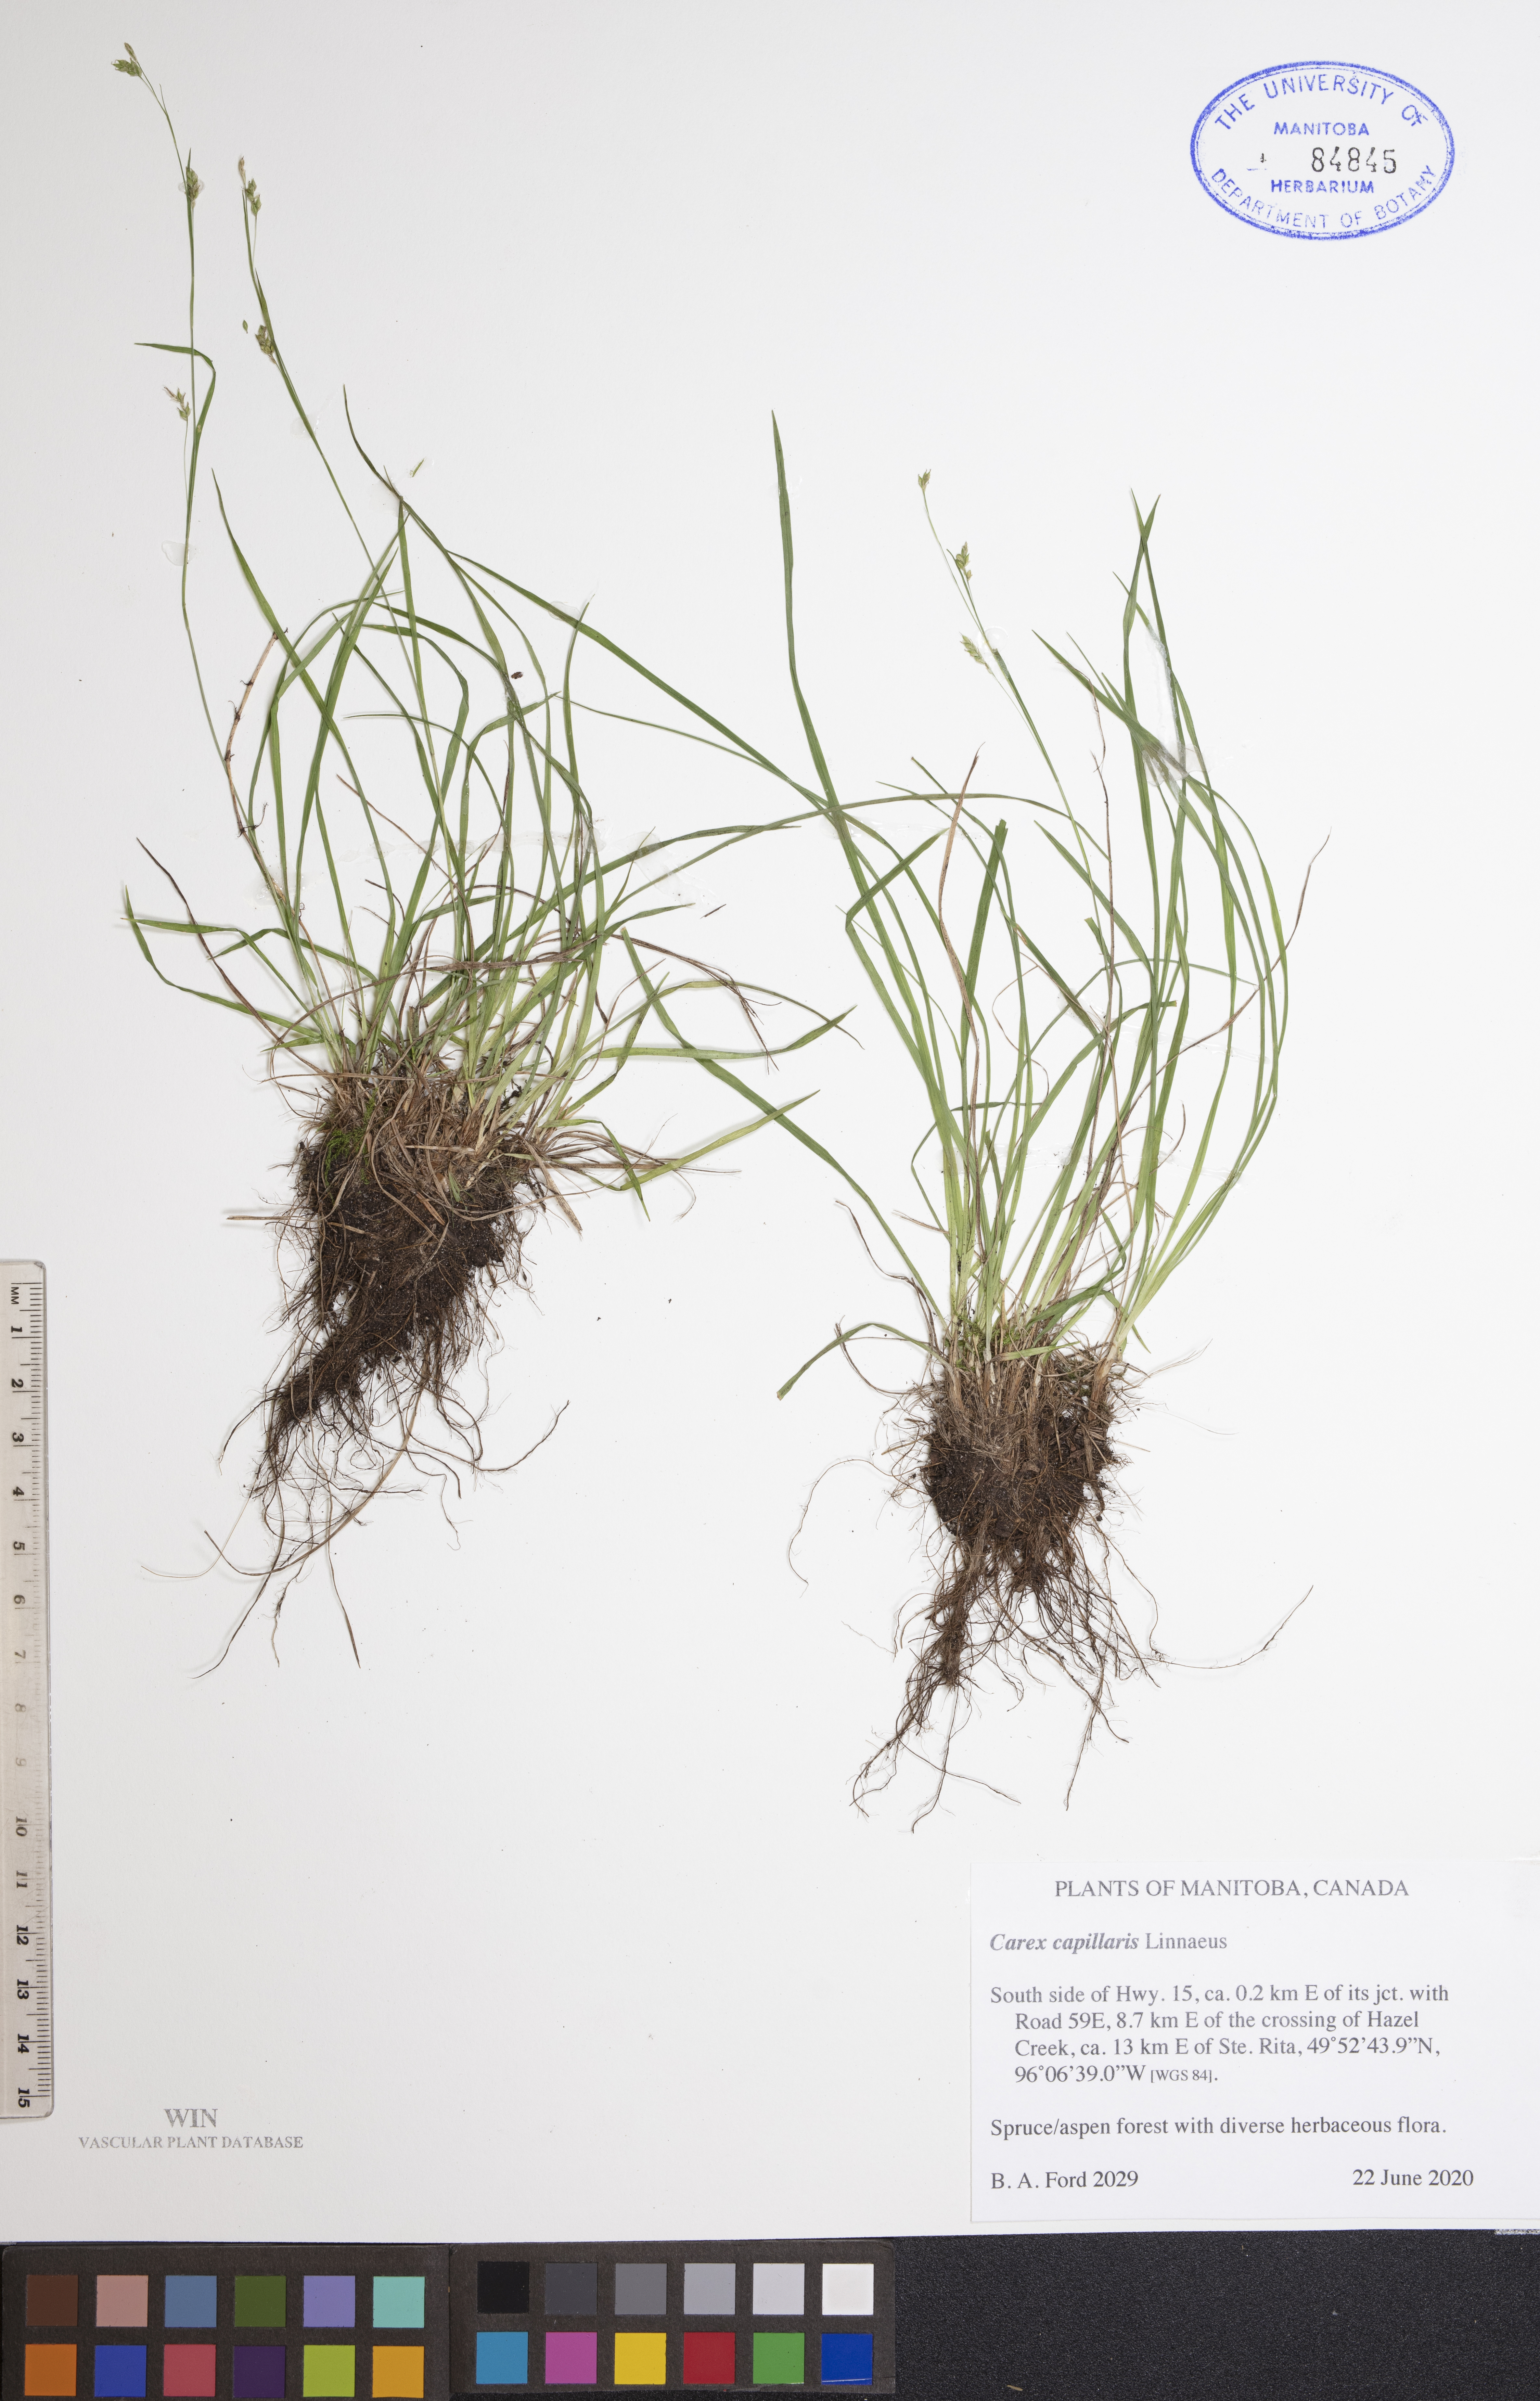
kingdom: Plantae
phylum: Tracheophyta
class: Liliopsida
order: Poales
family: Cyperaceae
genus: Carex
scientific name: Carex capillaris
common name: Hair sedge
